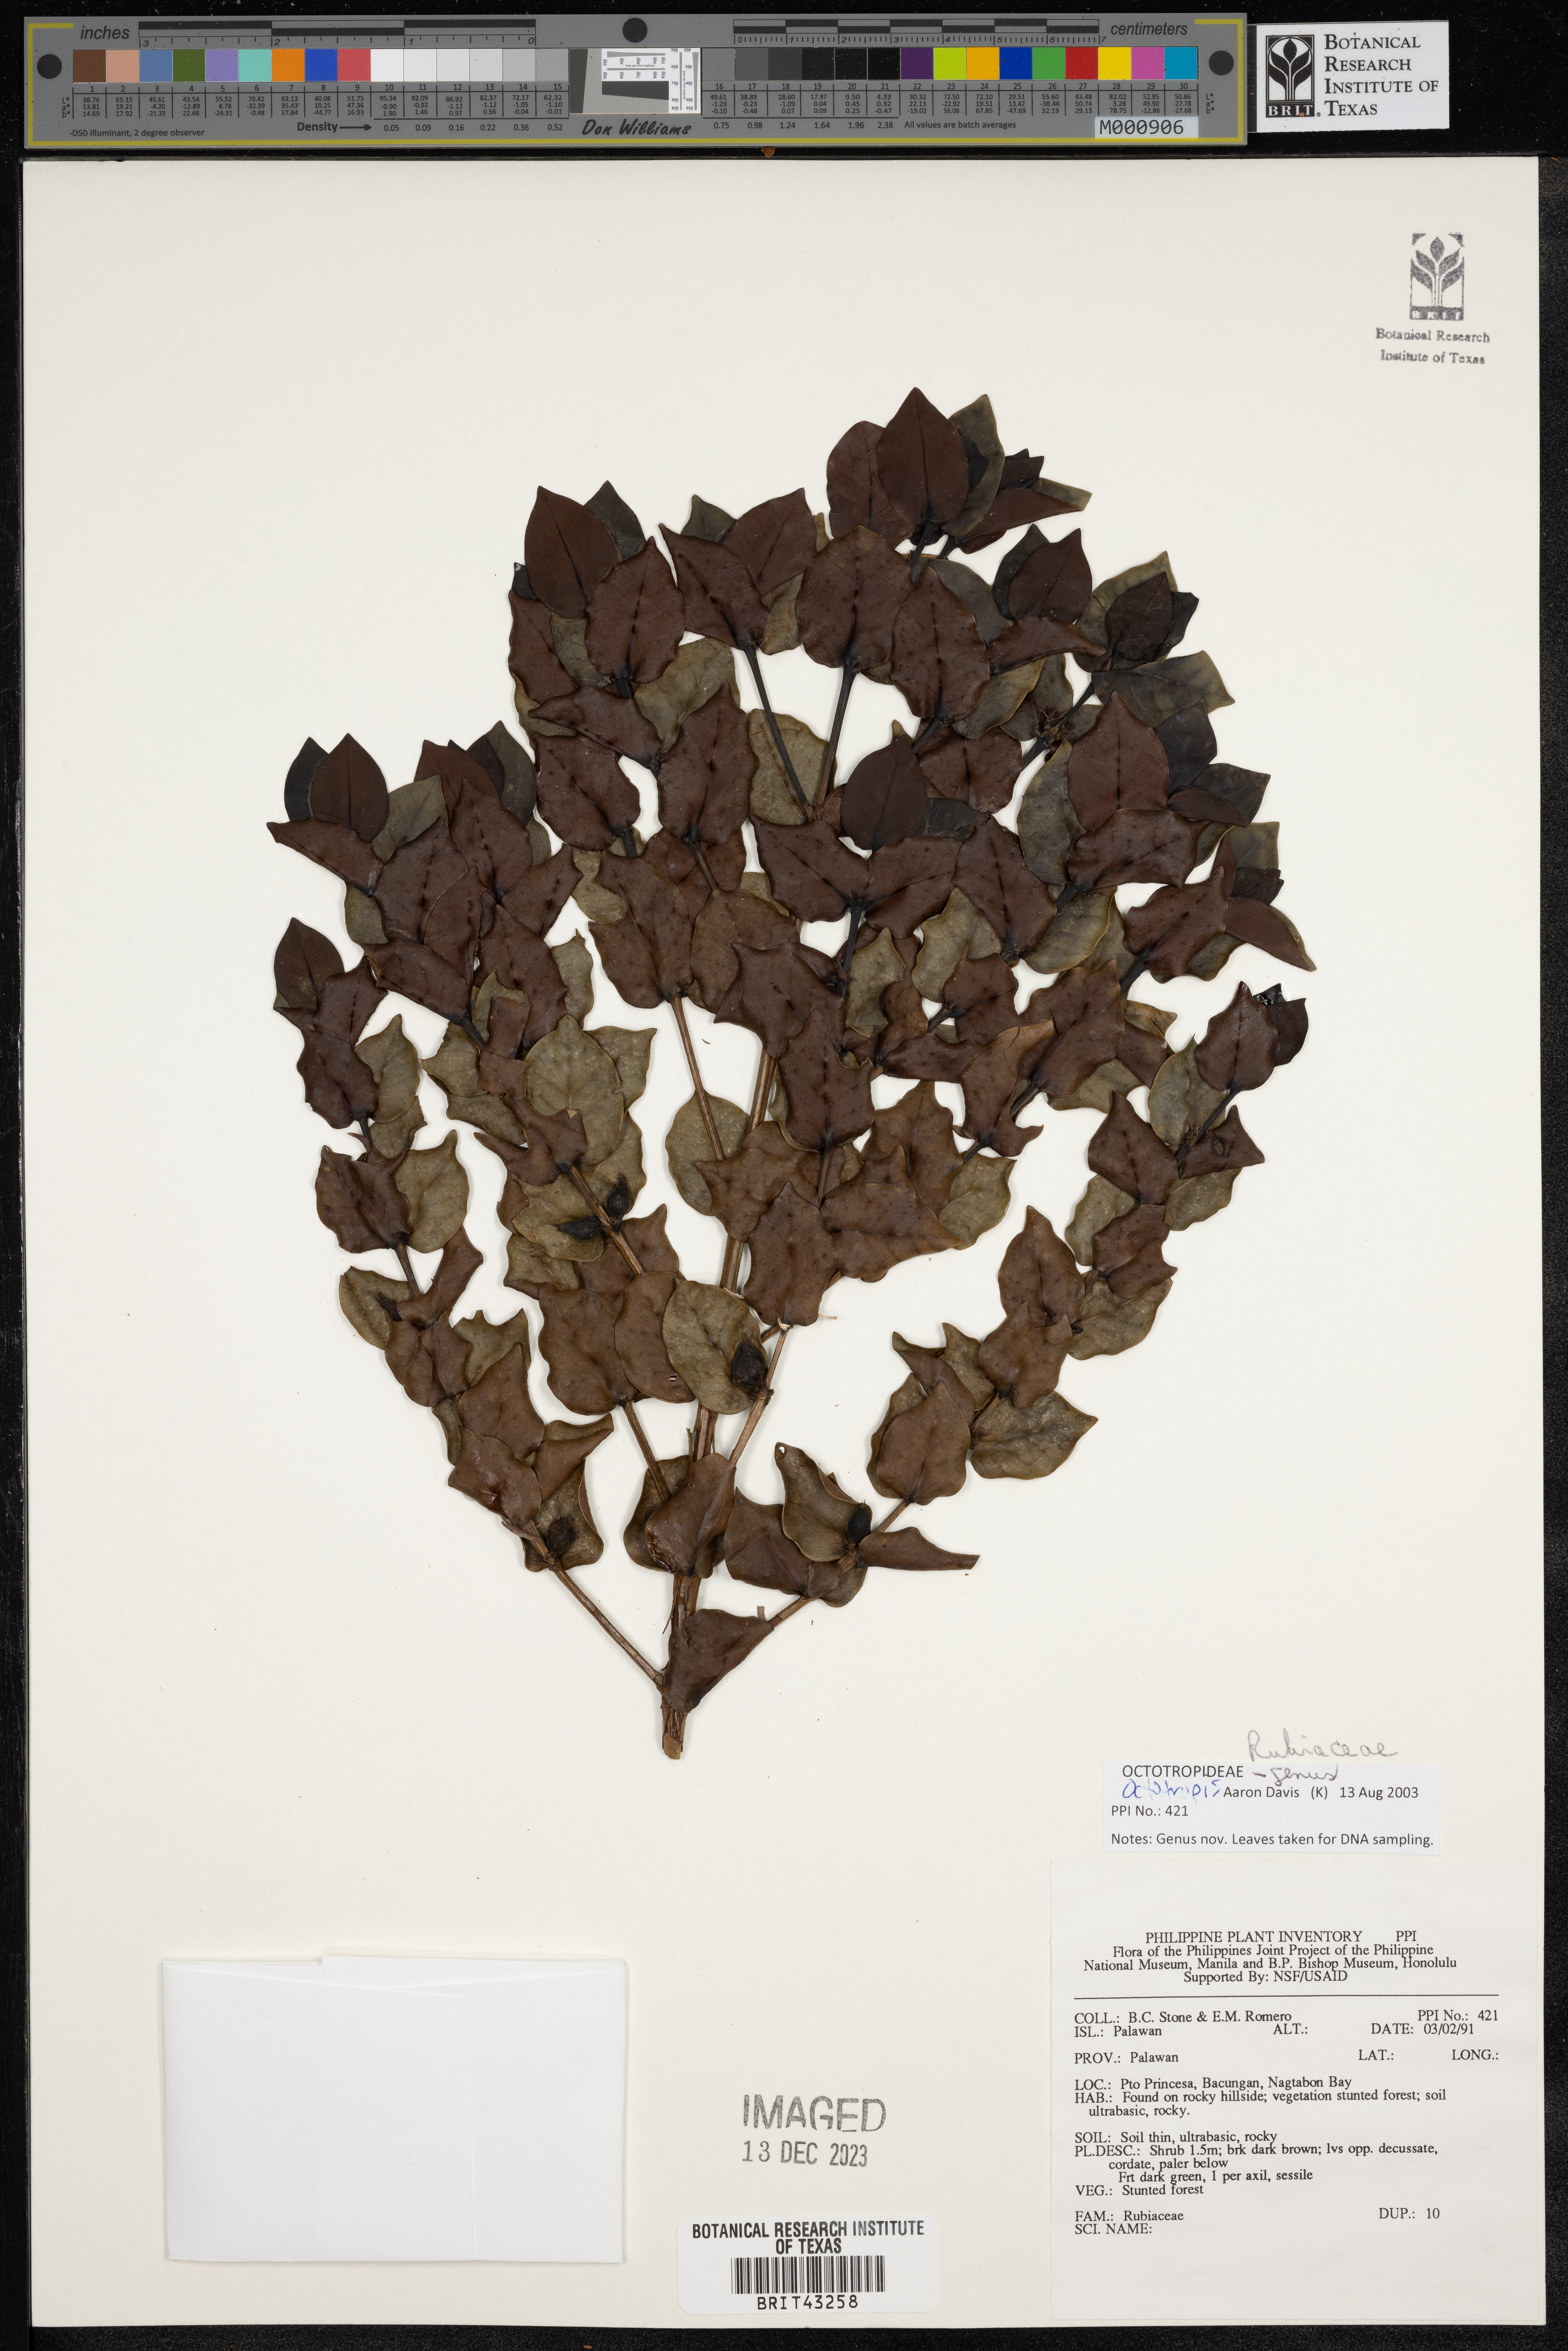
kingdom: Plantae
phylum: Tracheophyta
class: Magnoliopsida
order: Gentianales
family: Rubiaceae
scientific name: Rubiaceae
